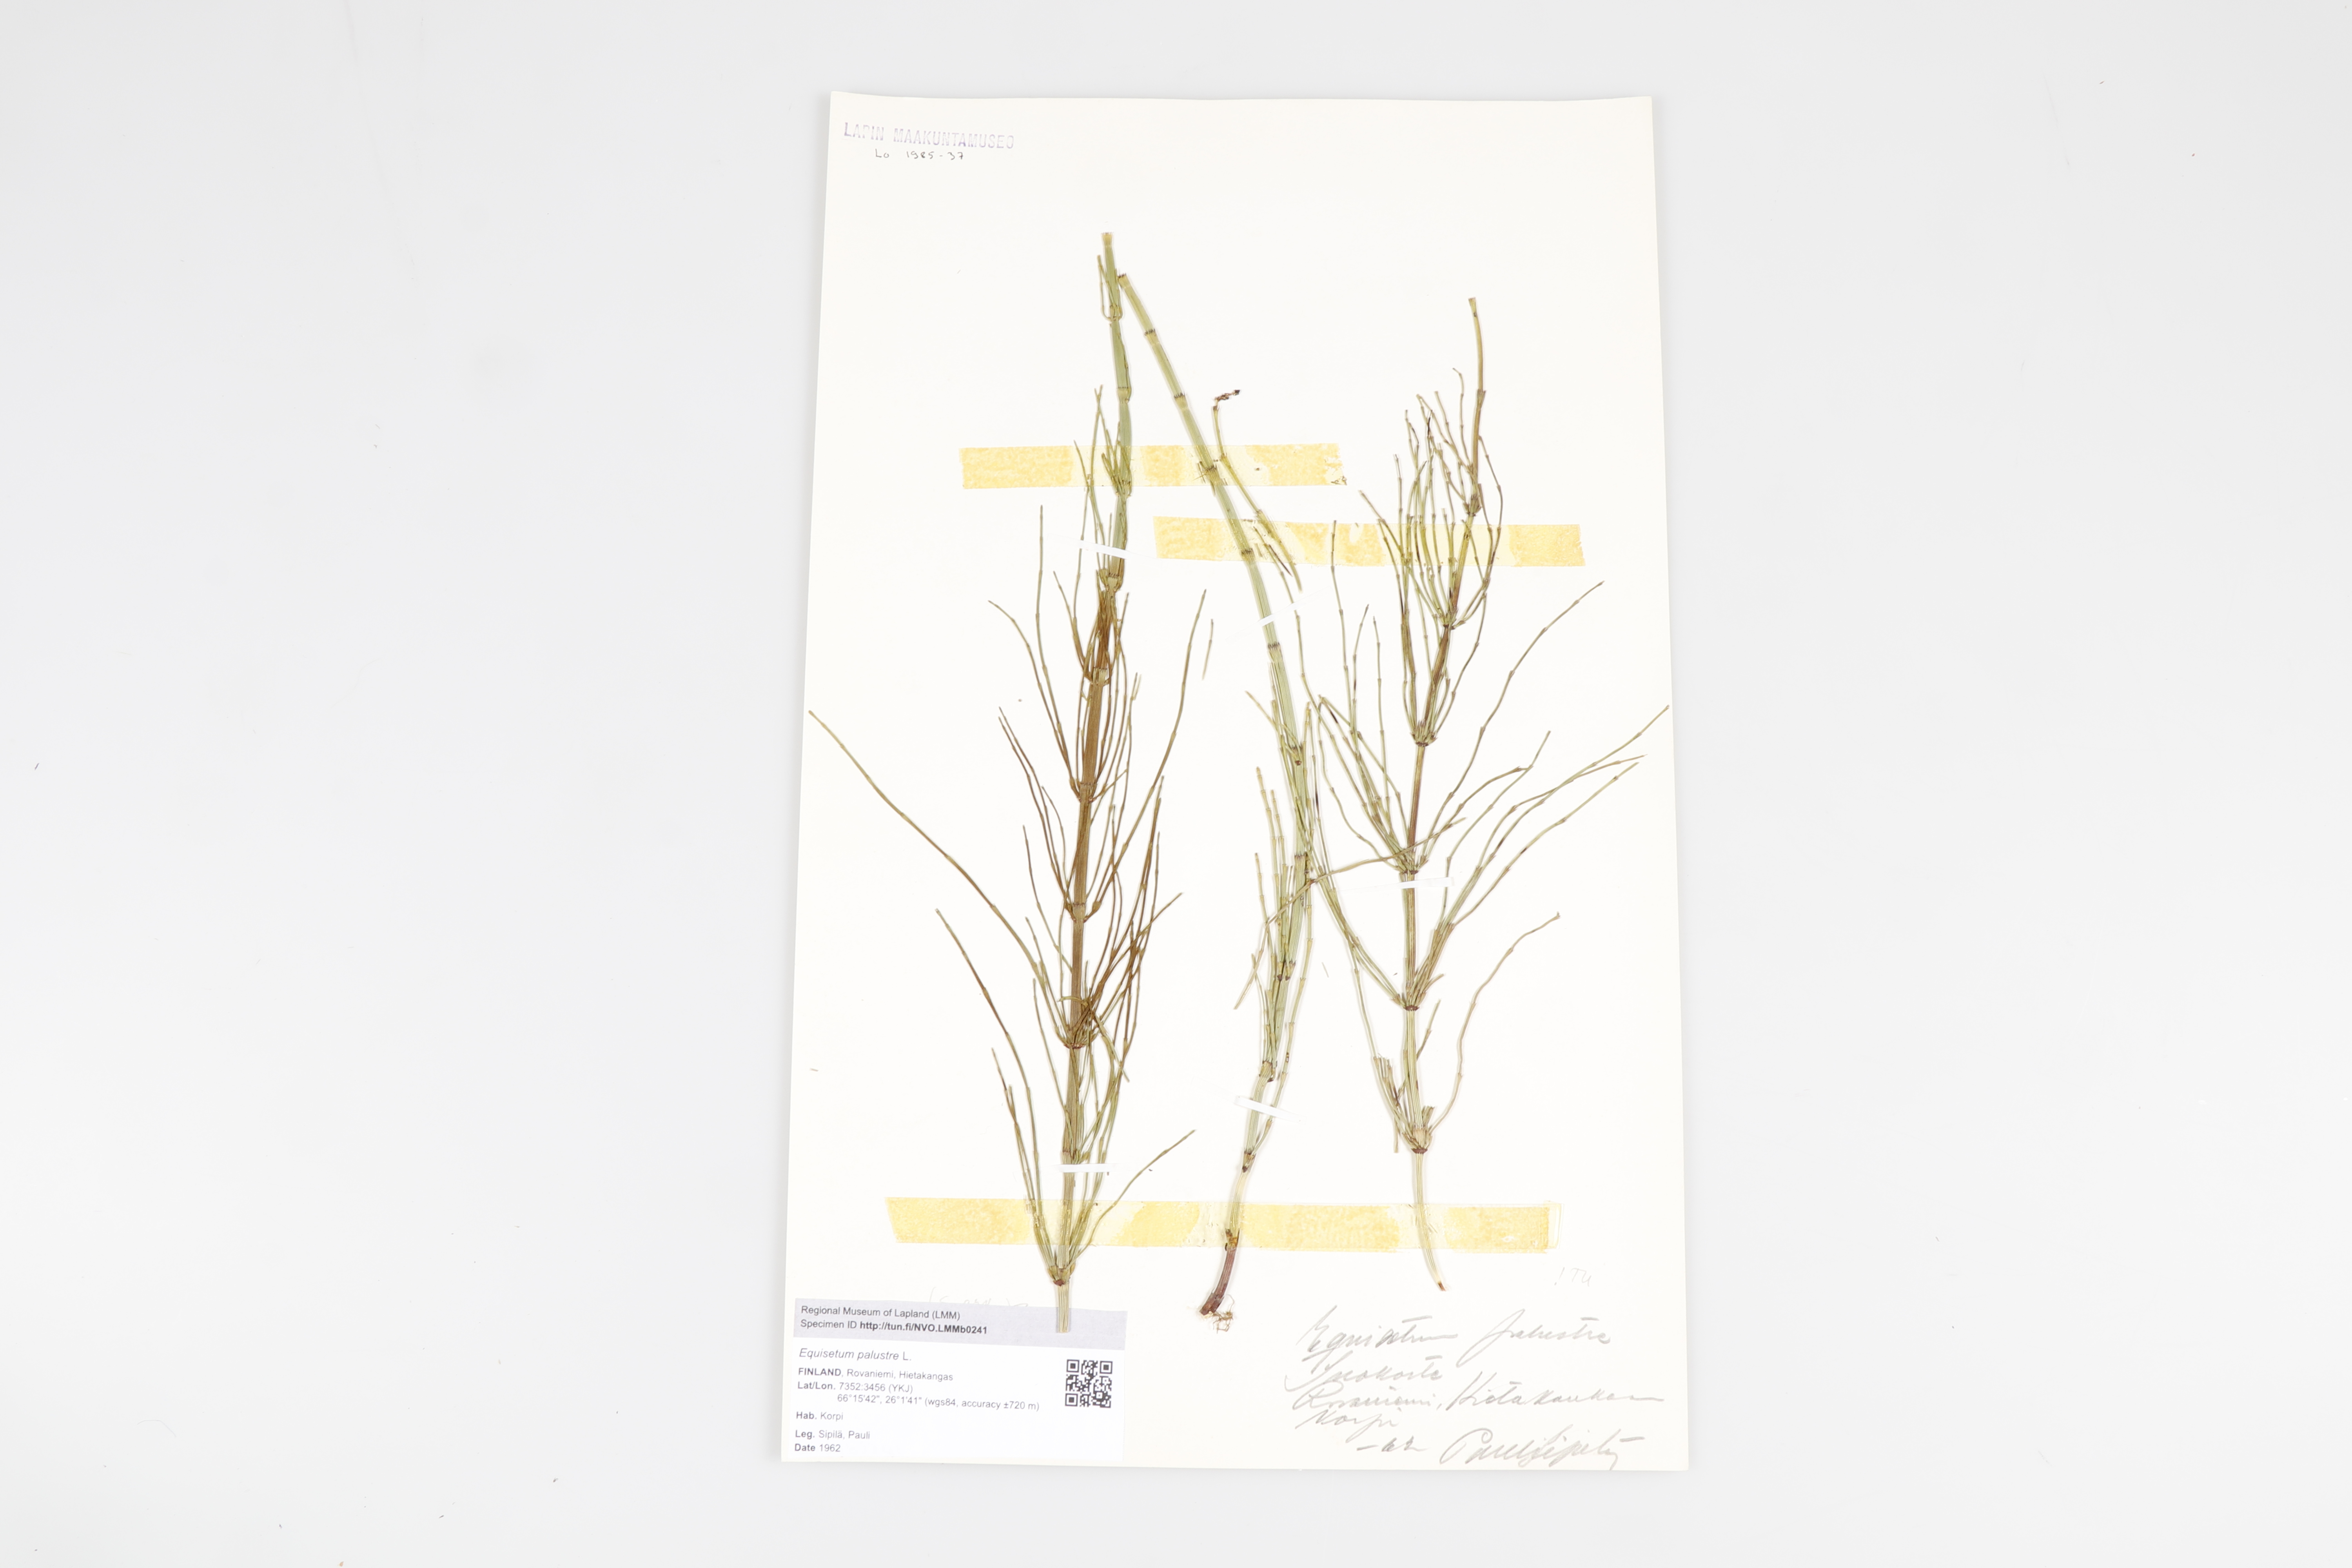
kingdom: Plantae
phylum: Tracheophyta
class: Polypodiopsida
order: Equisetales
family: Equisetaceae
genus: Equisetum
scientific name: Equisetum palustre
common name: Marsh horsetail
